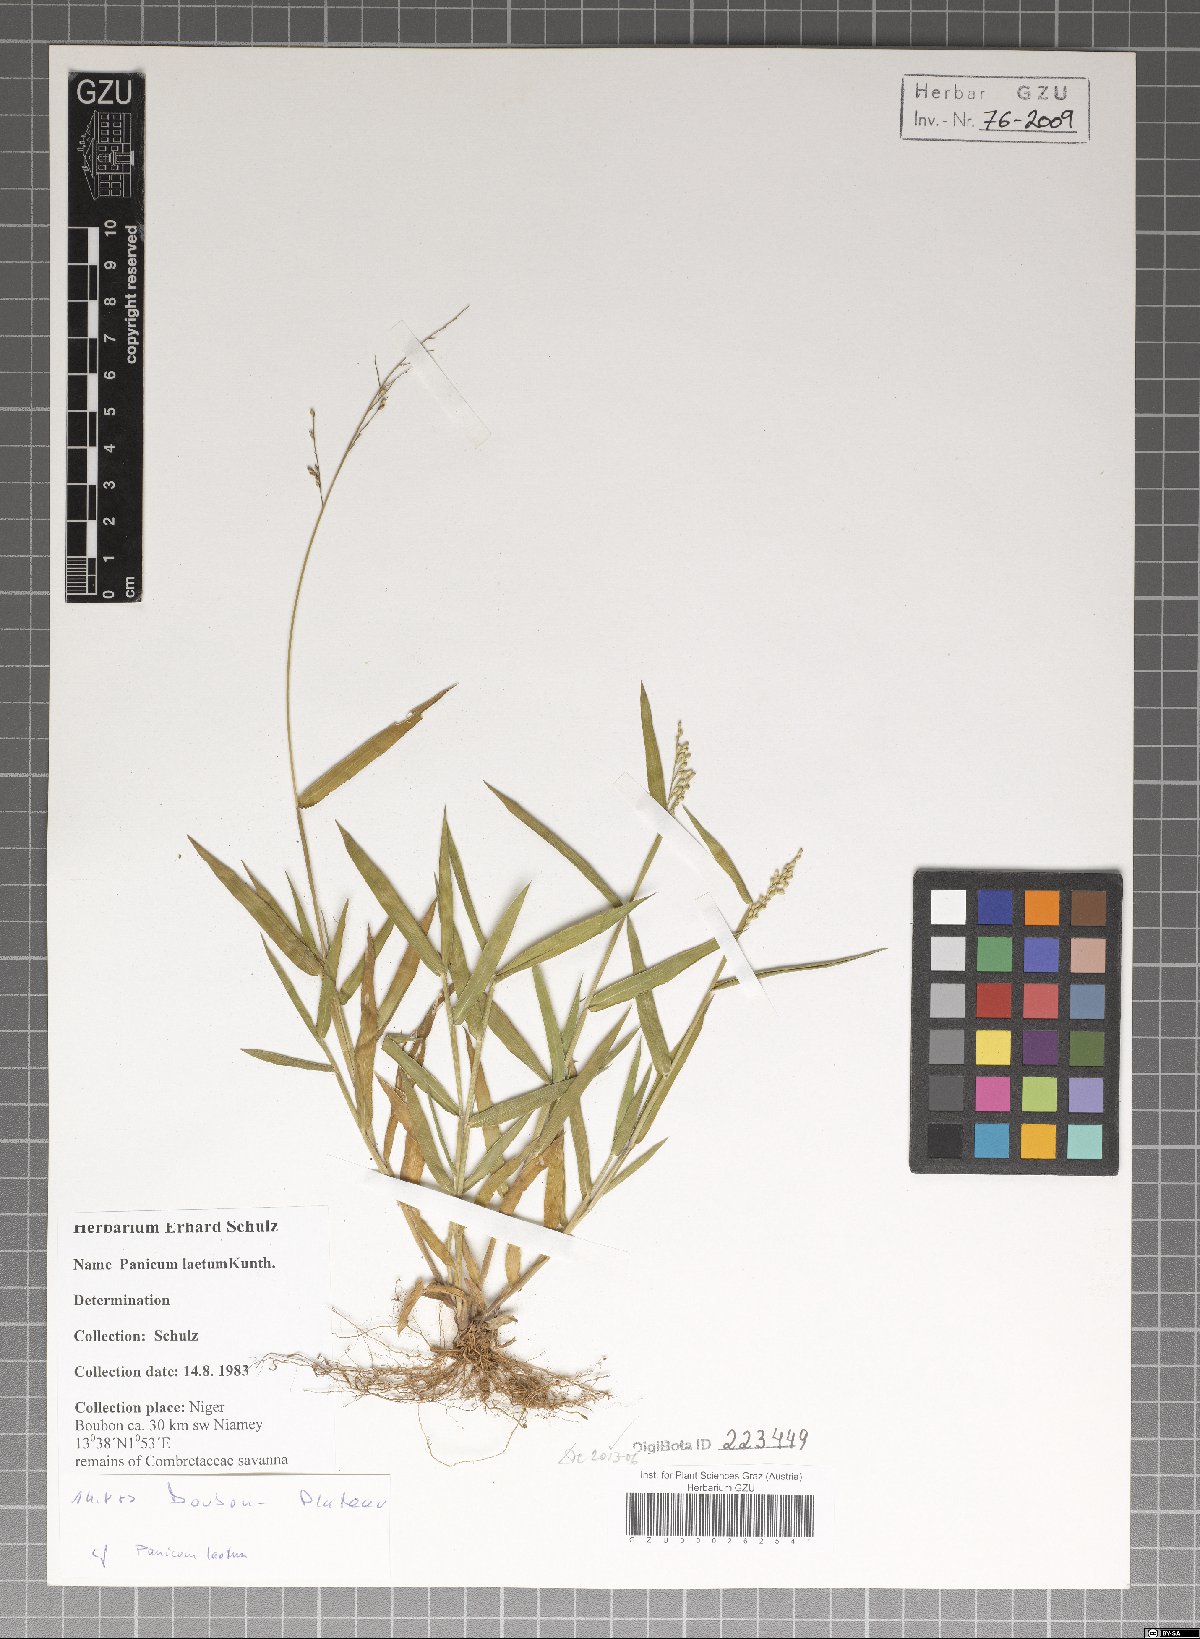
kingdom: Plantae
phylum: Tracheophyta
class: Liliopsida
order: Poales
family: Poaceae
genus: Panicum
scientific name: Panicum laetum
